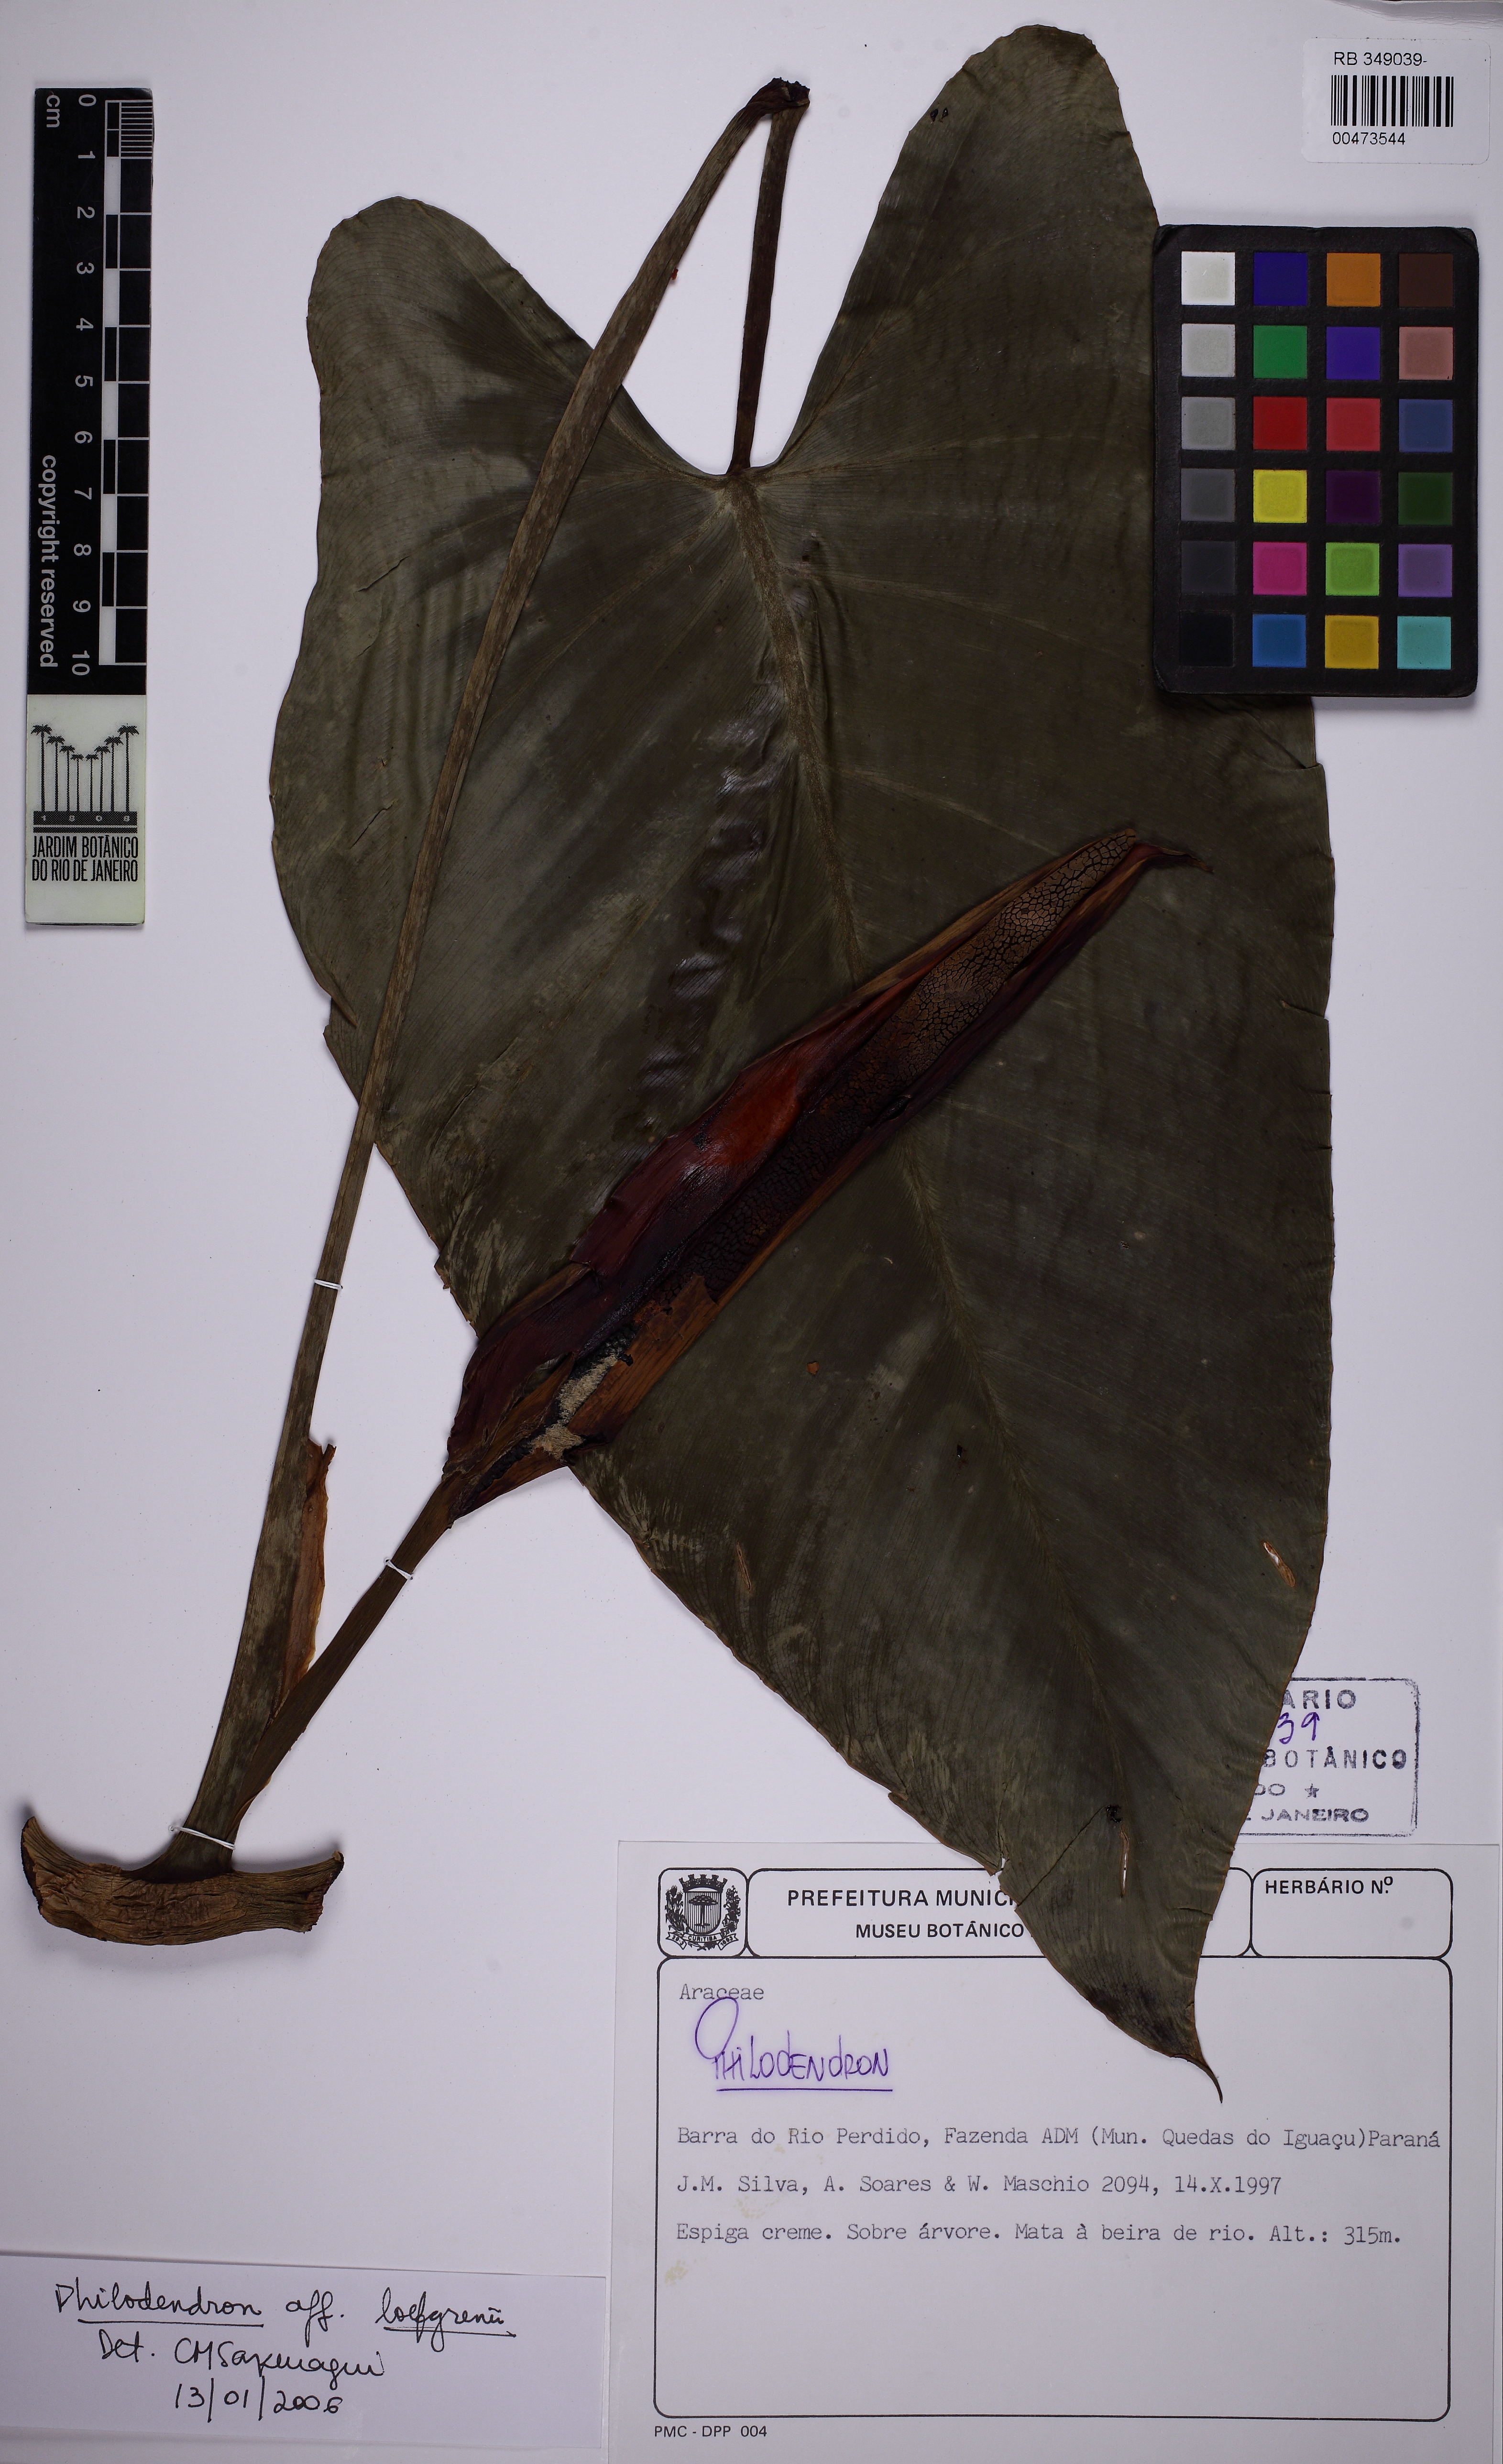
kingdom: Plantae
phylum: Tracheophyta
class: Liliopsida
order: Alismatales
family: Araceae
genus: Philodendron
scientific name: Philodendron loefgrenii
